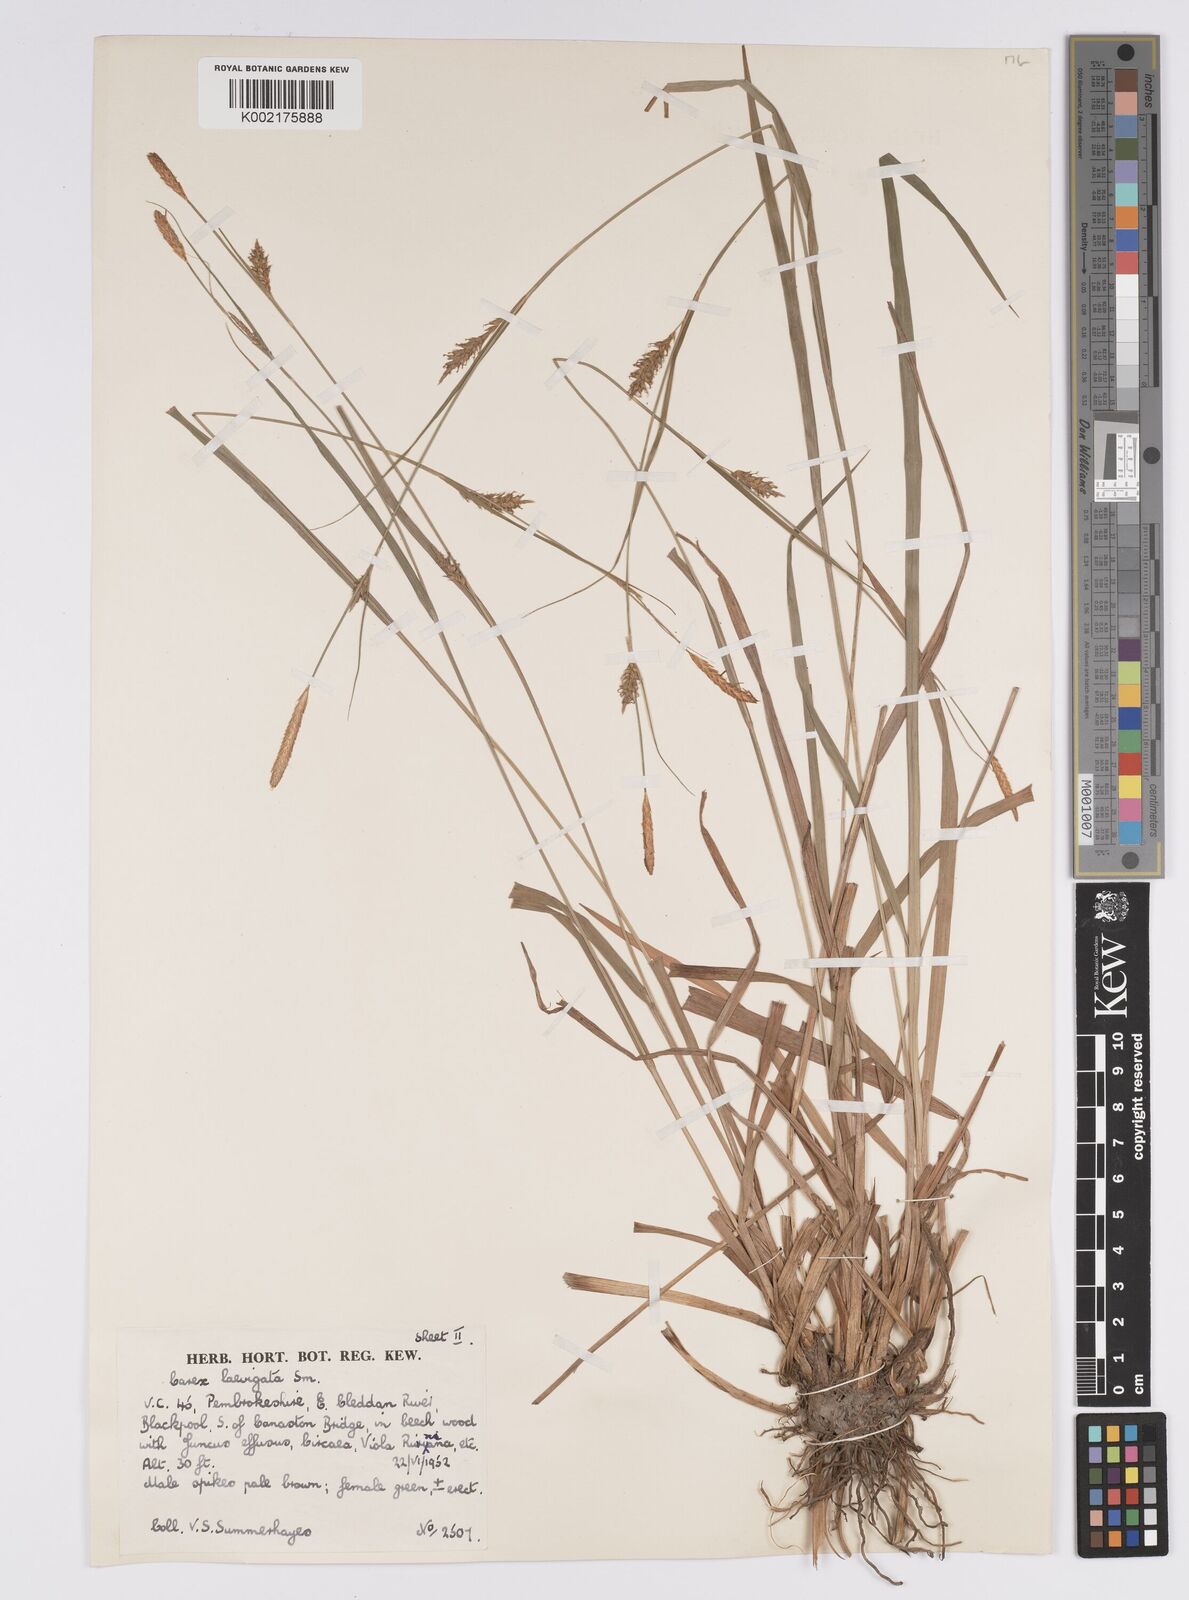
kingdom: Plantae
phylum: Tracheophyta
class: Liliopsida
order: Poales
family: Cyperaceae
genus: Carex
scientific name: Carex laevigata
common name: Smooth-stalked sedge
